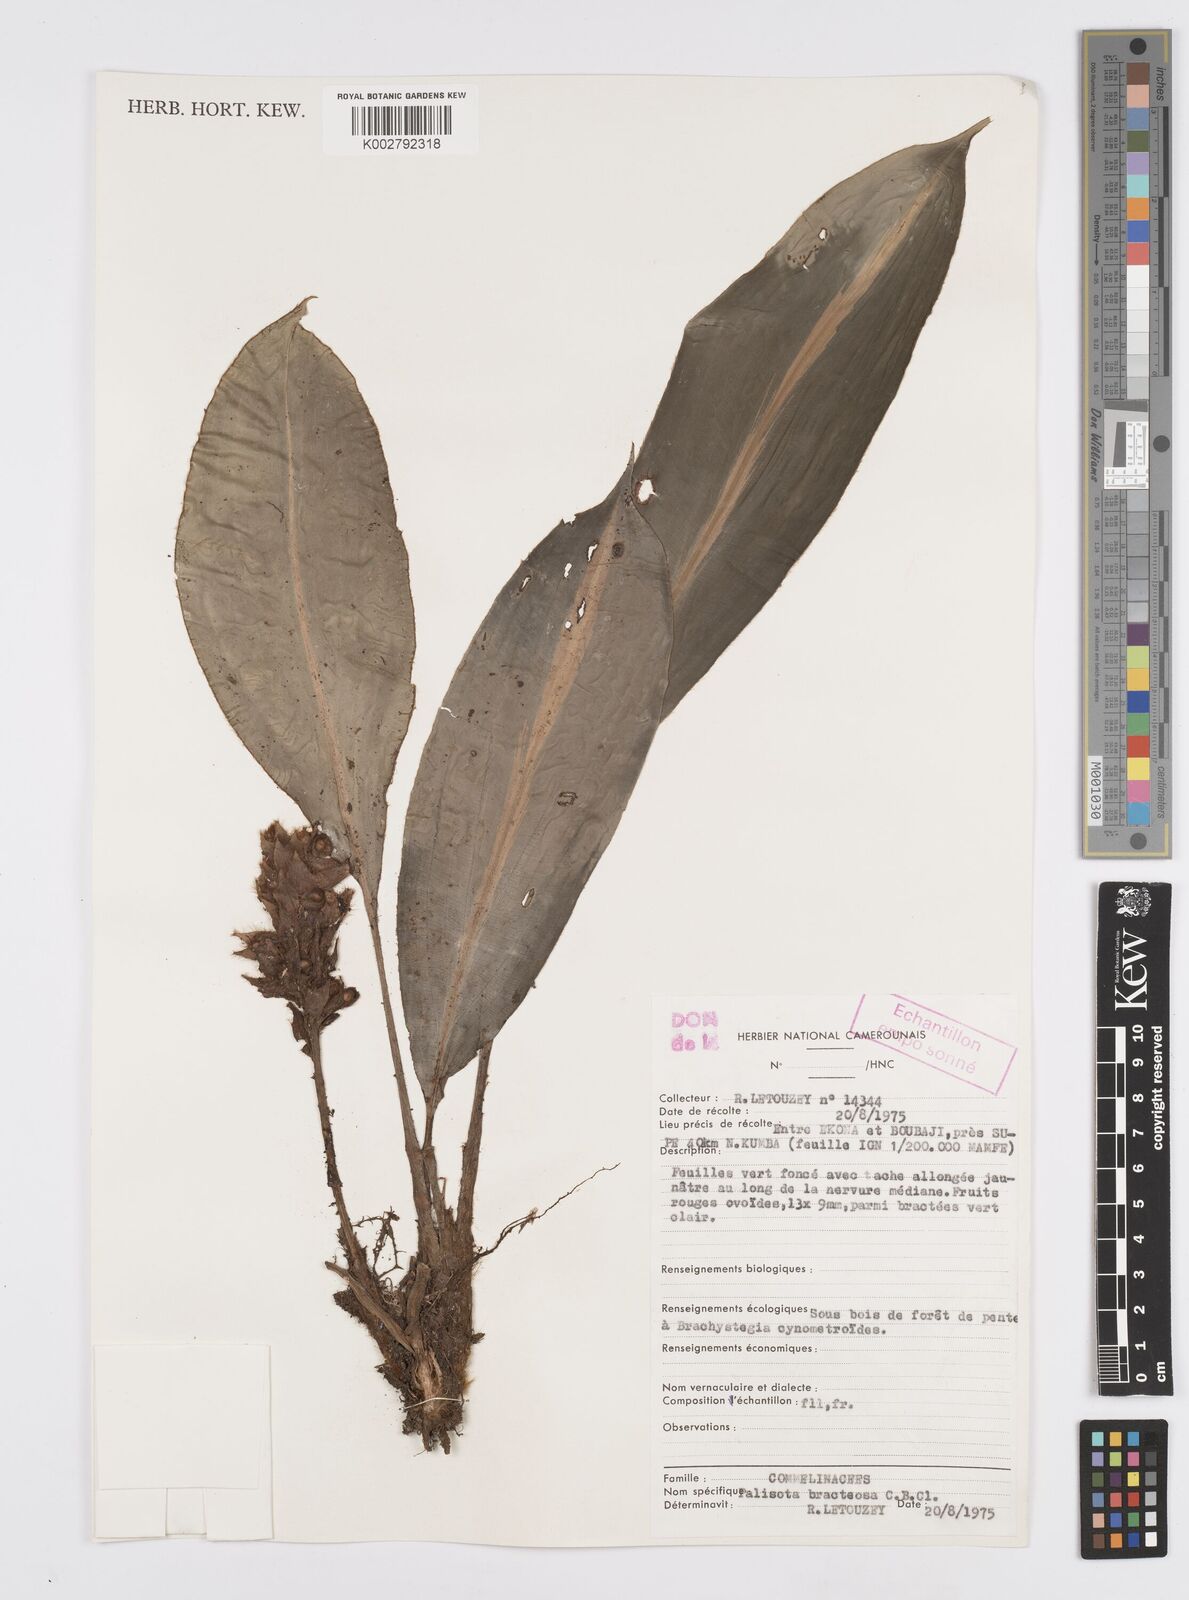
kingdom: Plantae
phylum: Tracheophyta
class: Liliopsida
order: Commelinales
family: Commelinaceae
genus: Palisota
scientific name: Palisota bracteosa
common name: Palisota
